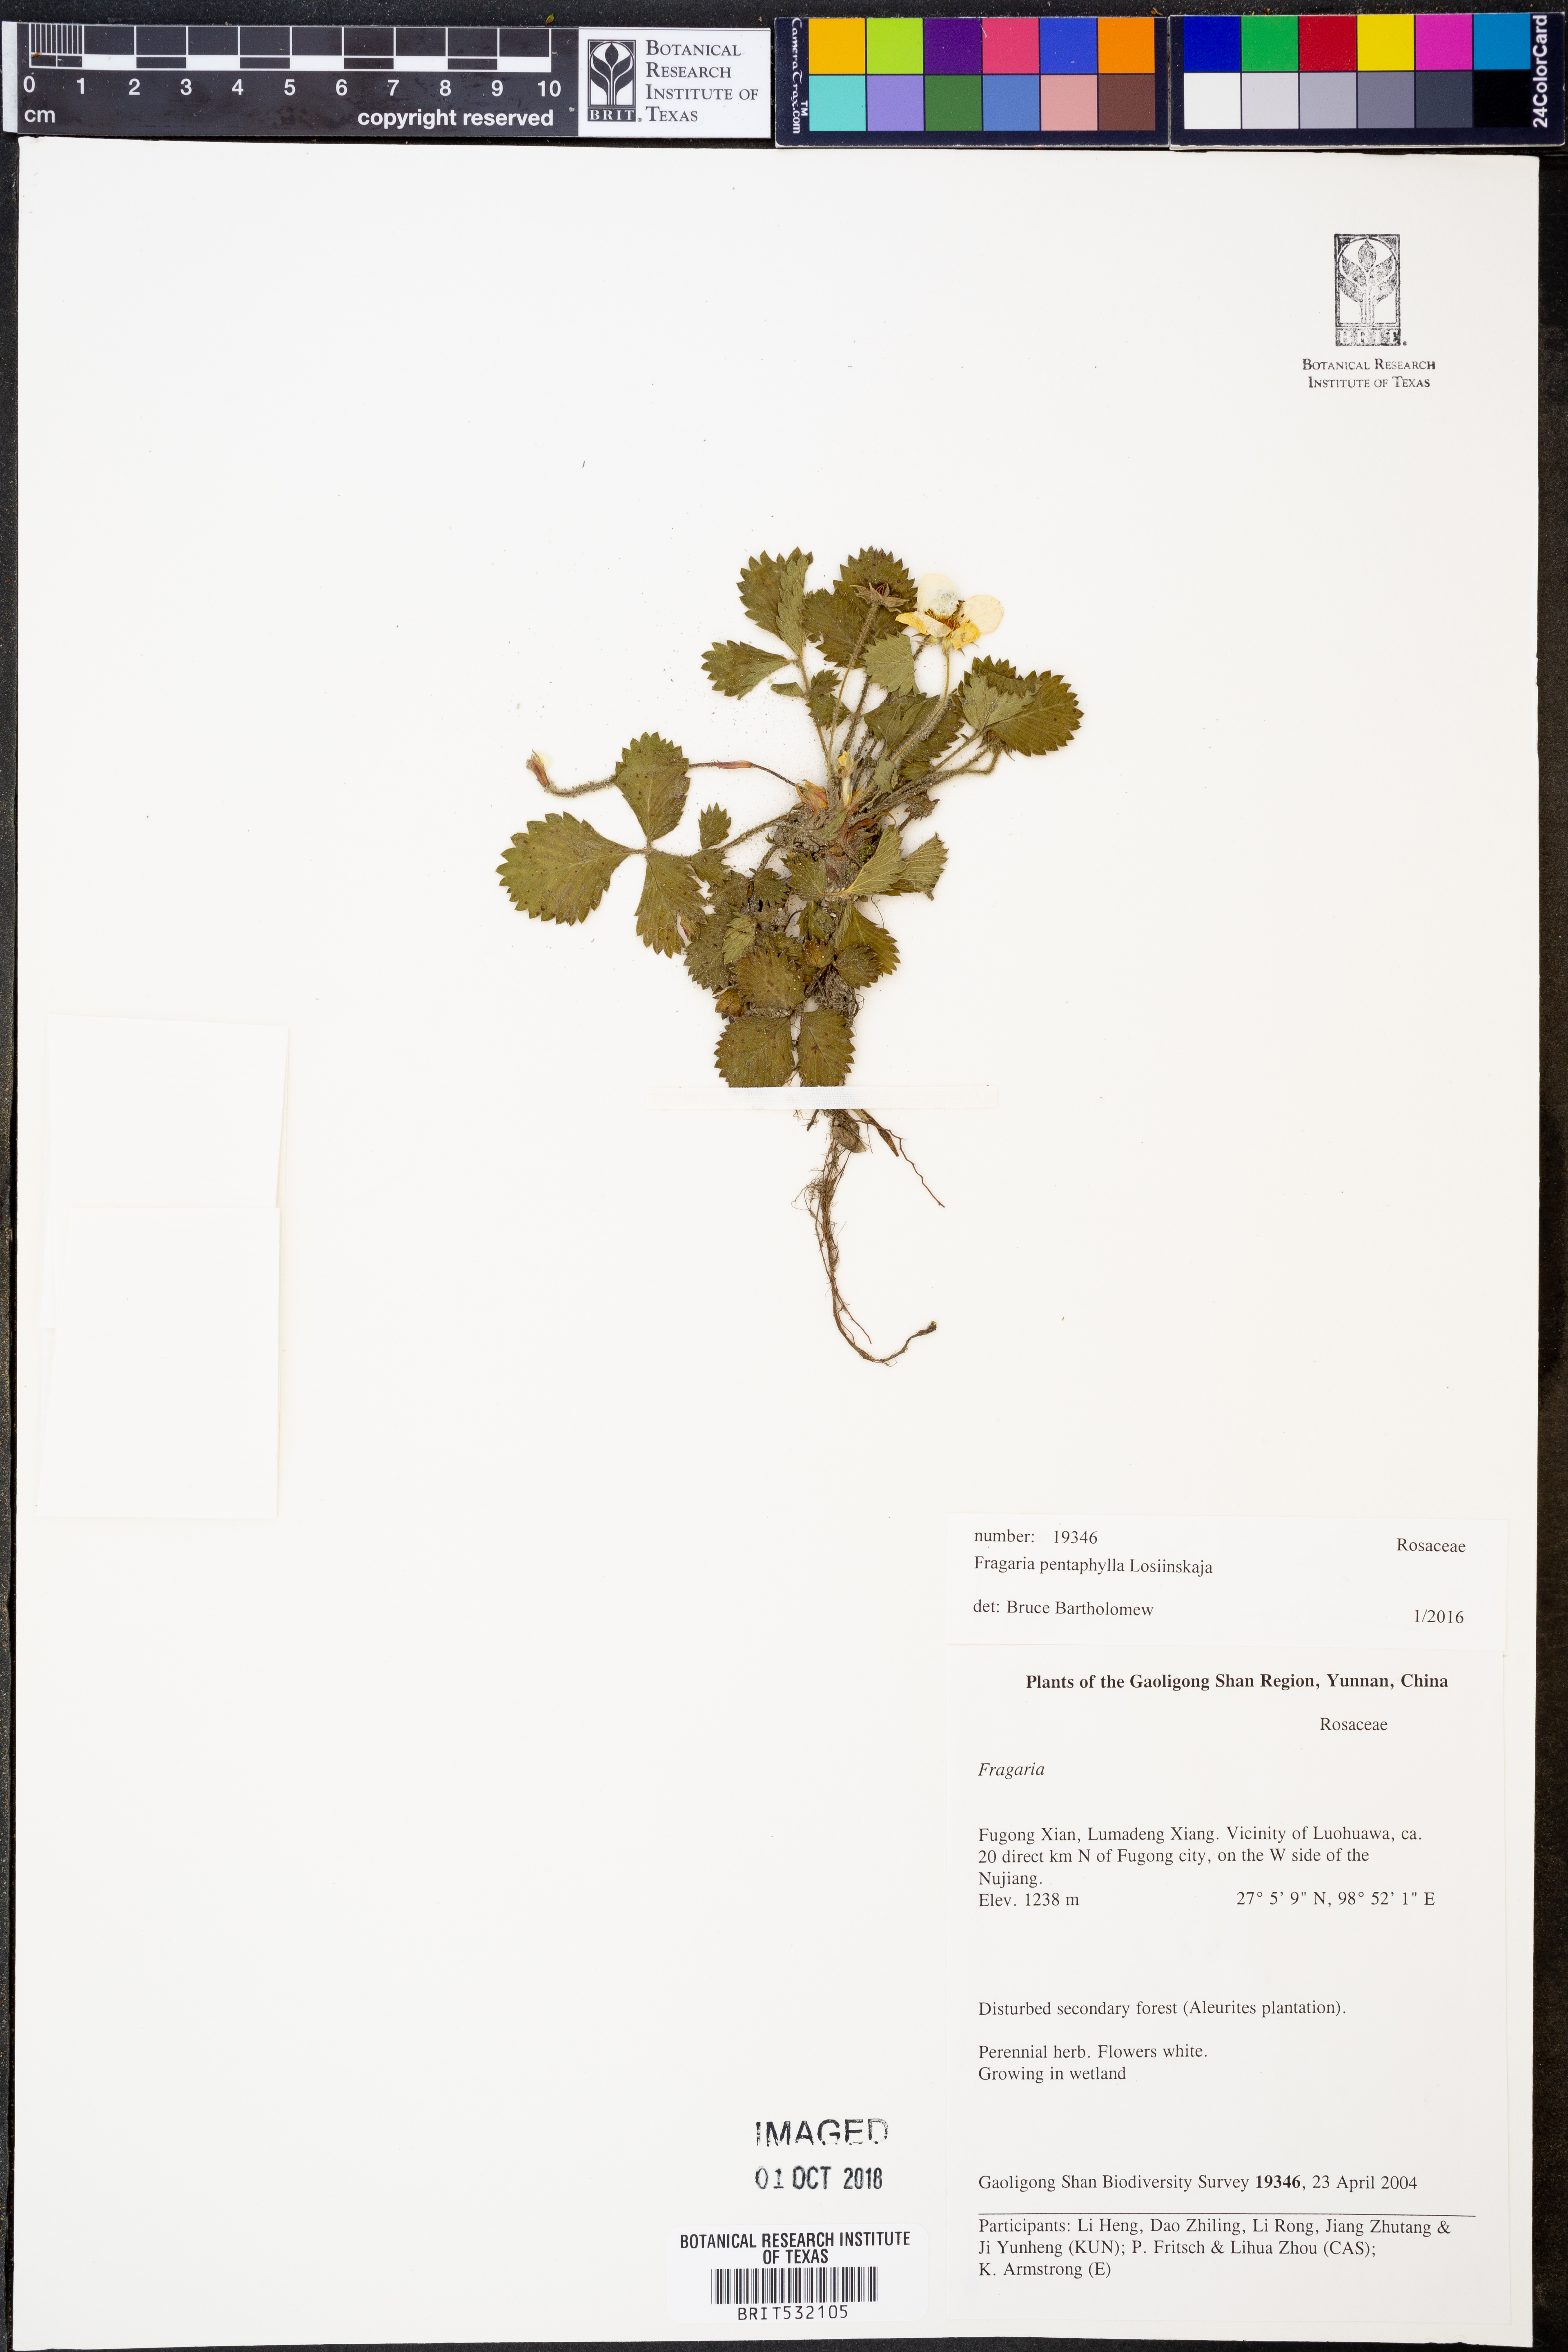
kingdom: Plantae
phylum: Tracheophyta
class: Magnoliopsida
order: Rosales
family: Rosaceae
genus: Fragaria
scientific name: Fragaria pentaphylla
